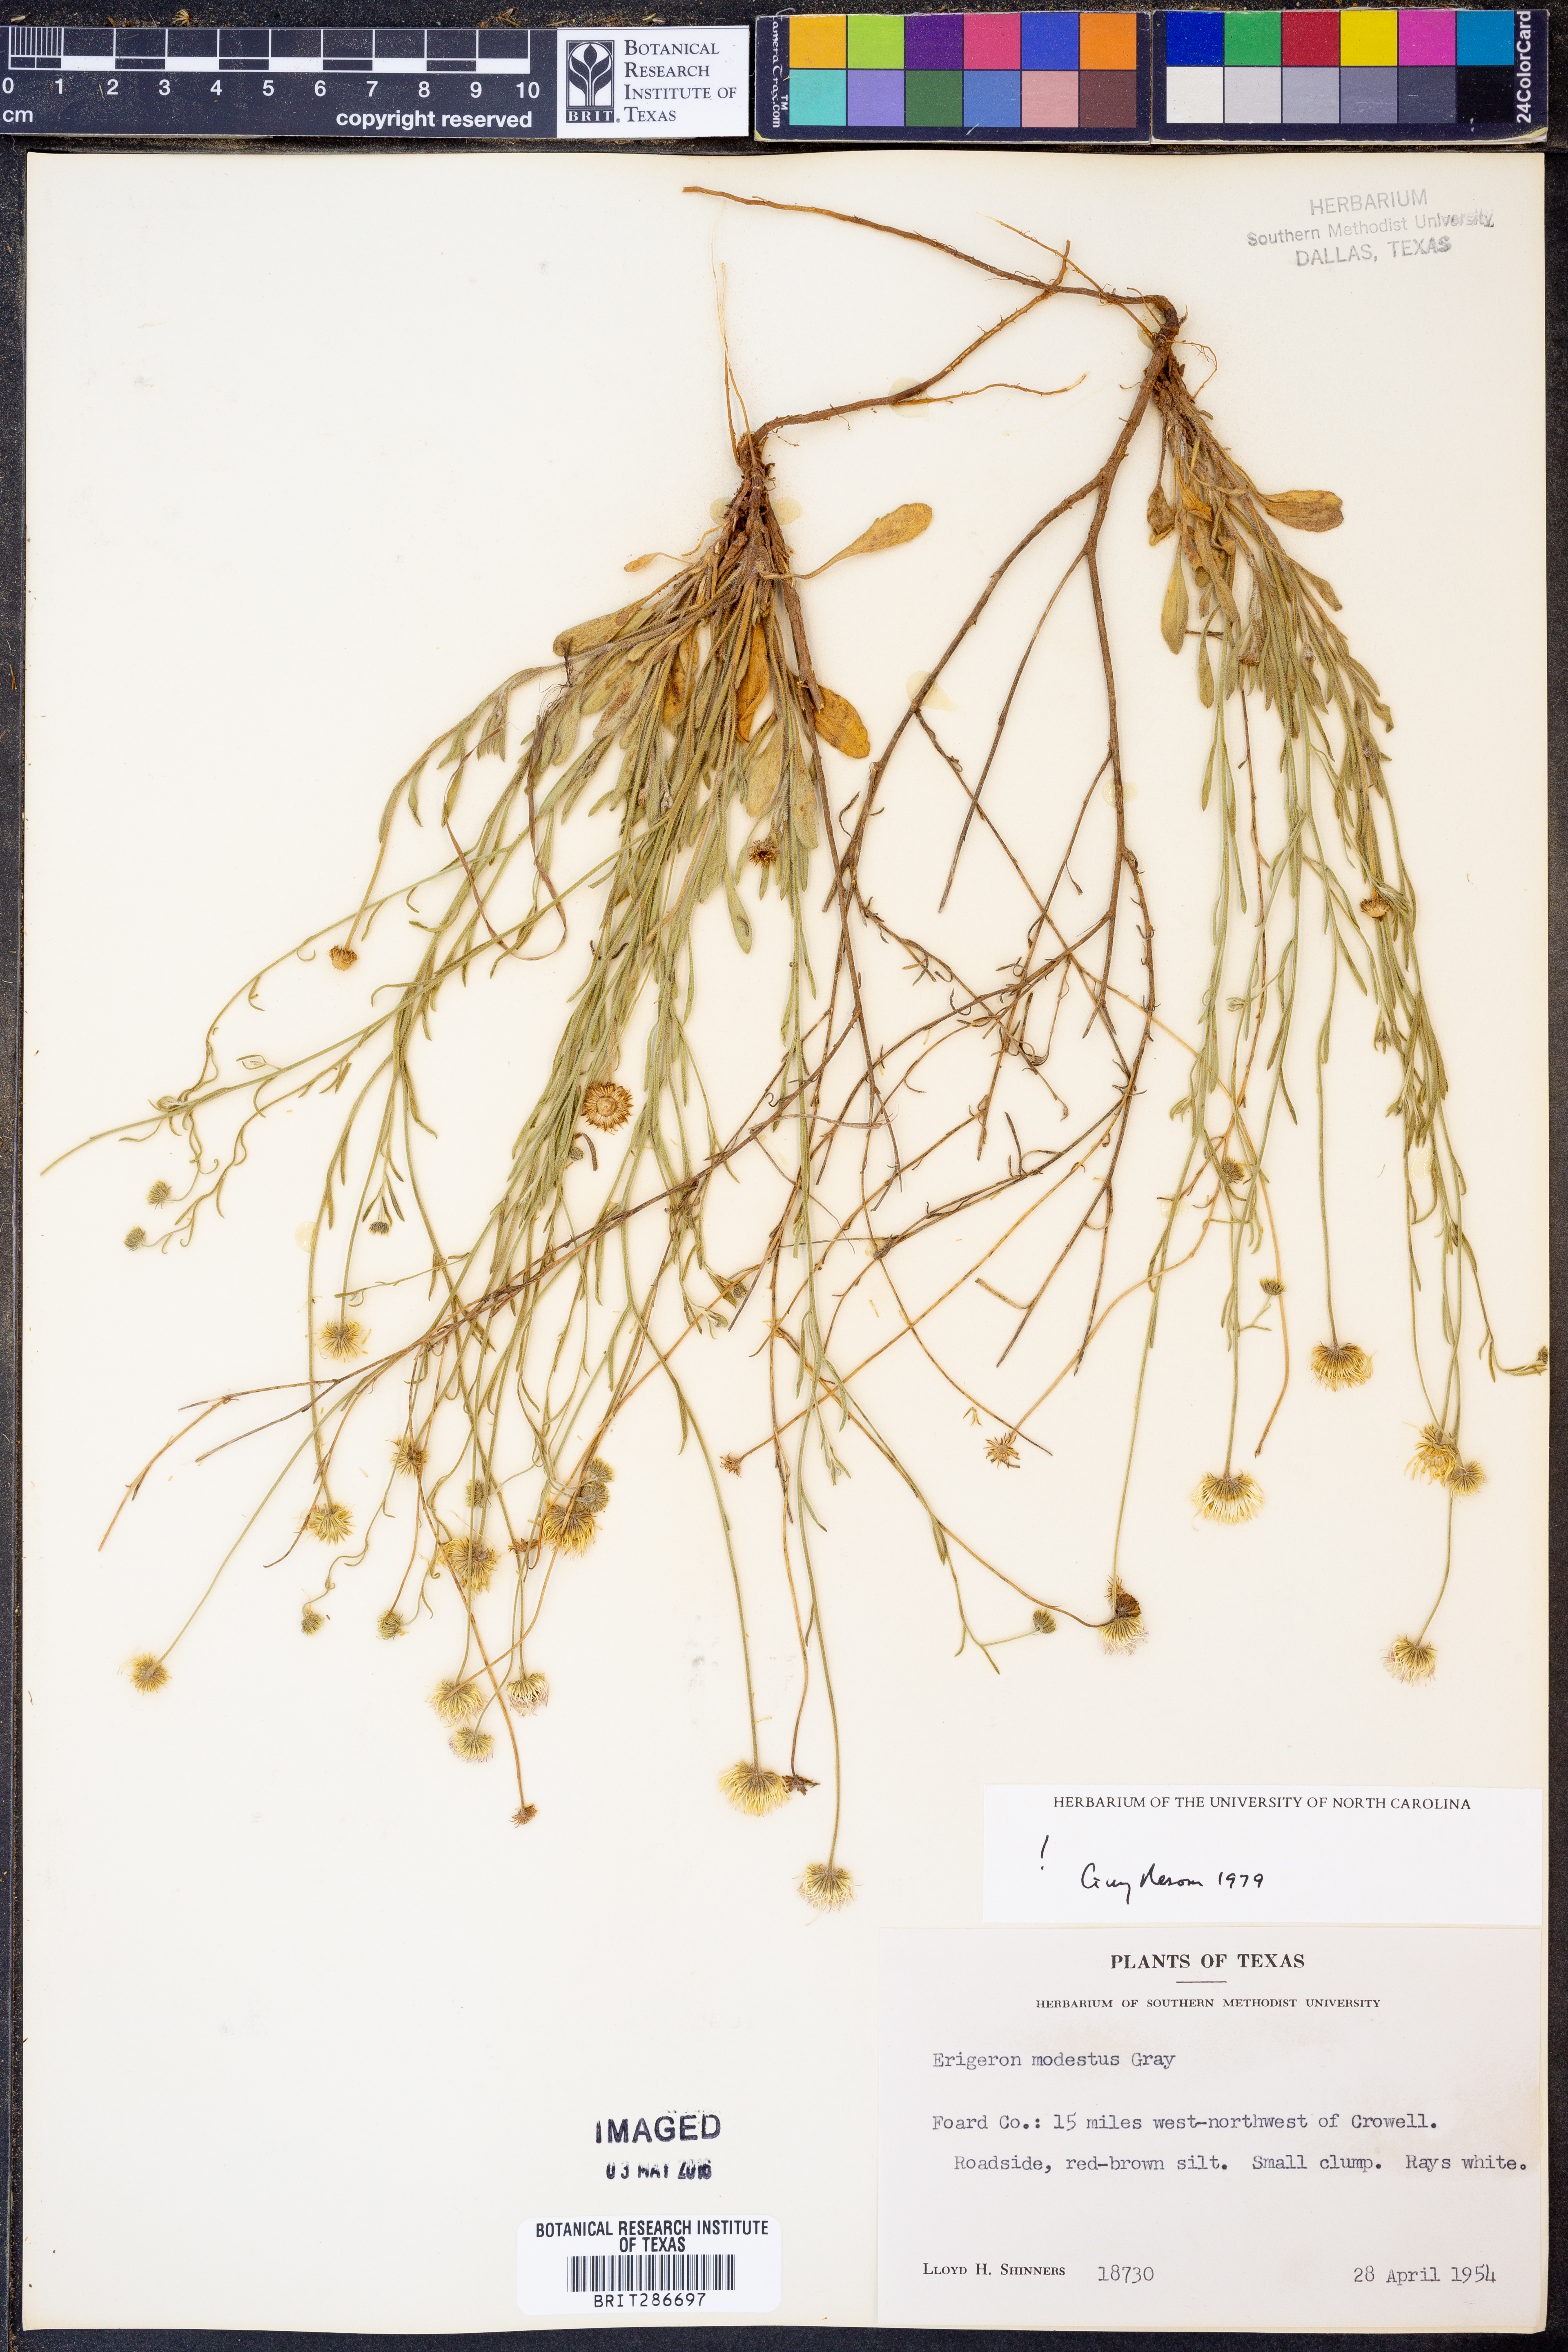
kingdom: Plantae
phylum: Tracheophyta
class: Magnoliopsida
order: Asterales
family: Asteraceae
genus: Erigeron
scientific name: Erigeron modestus
